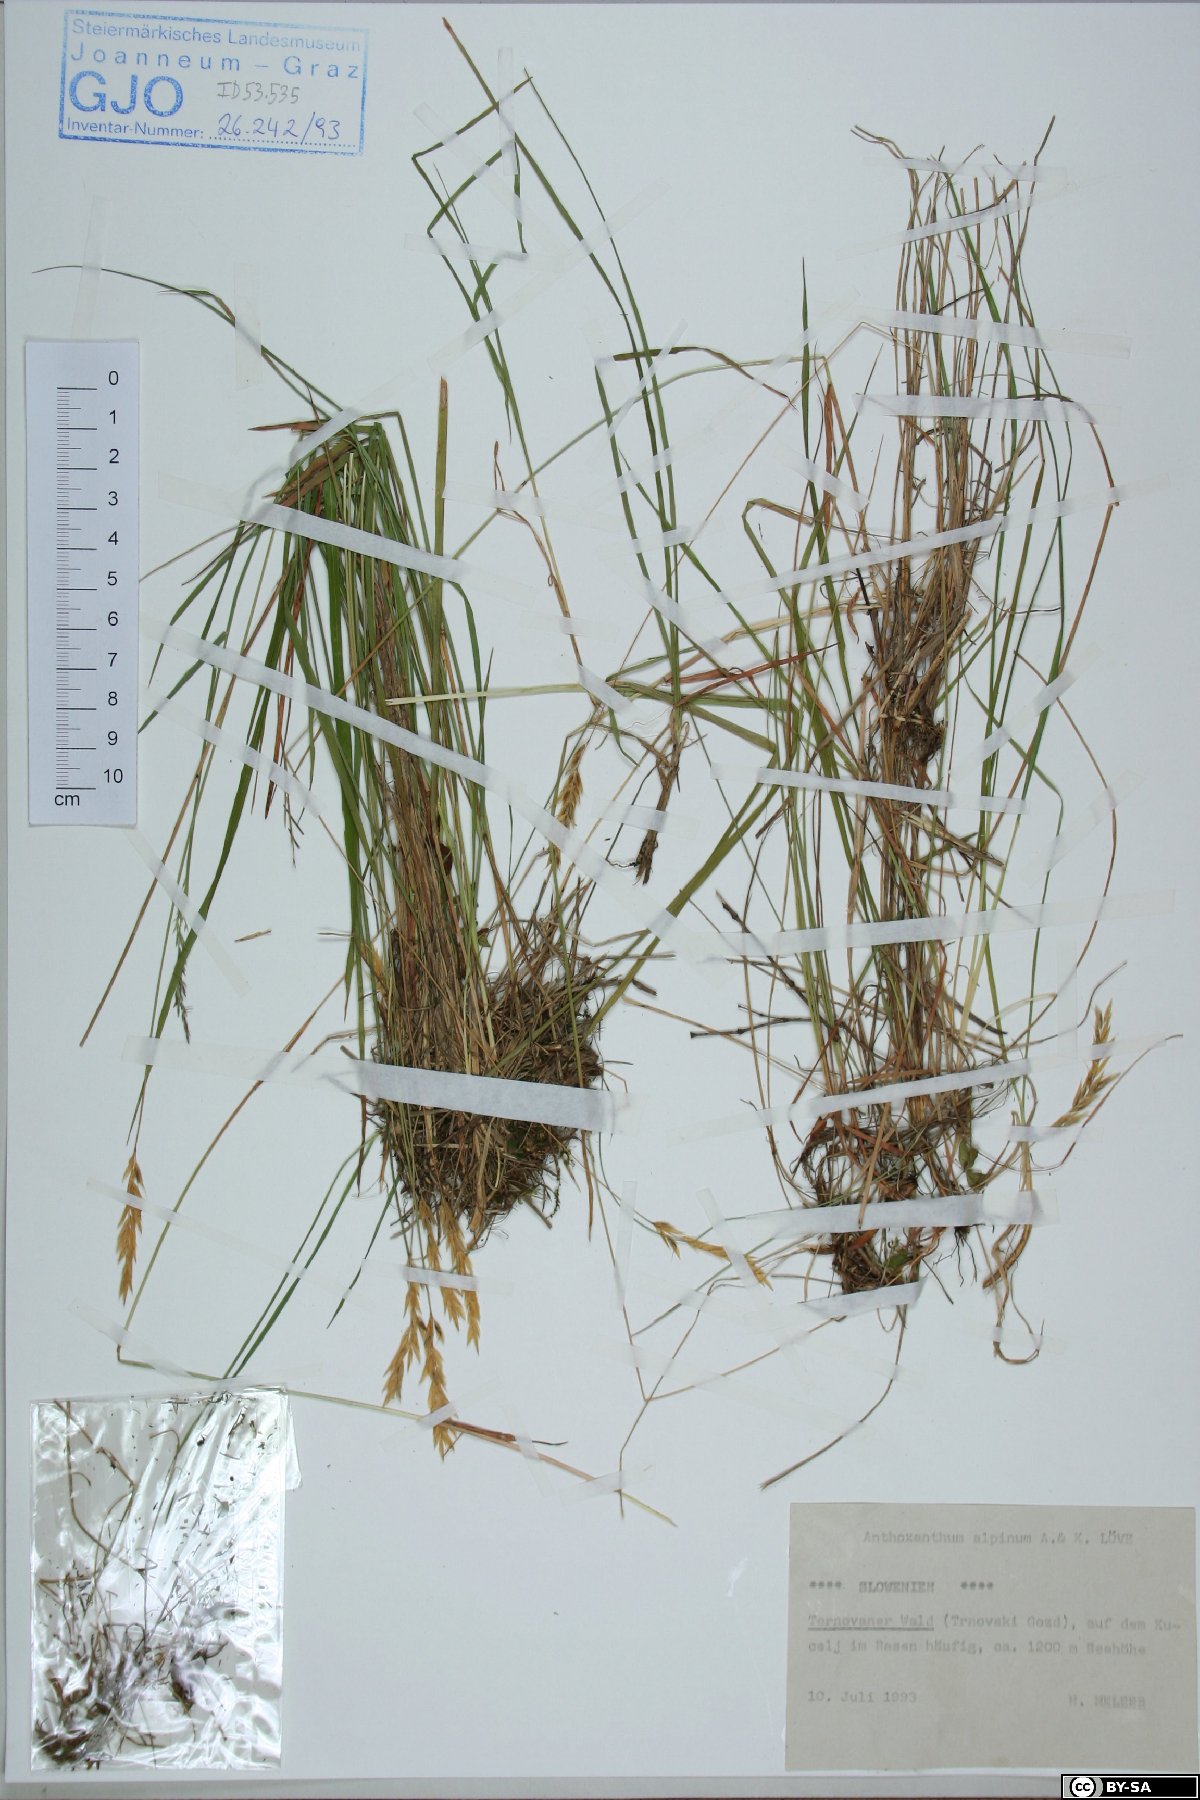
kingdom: Plantae
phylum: Tracheophyta
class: Liliopsida
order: Poales
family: Poaceae
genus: Anthoxanthum
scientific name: Anthoxanthum nipponicum
